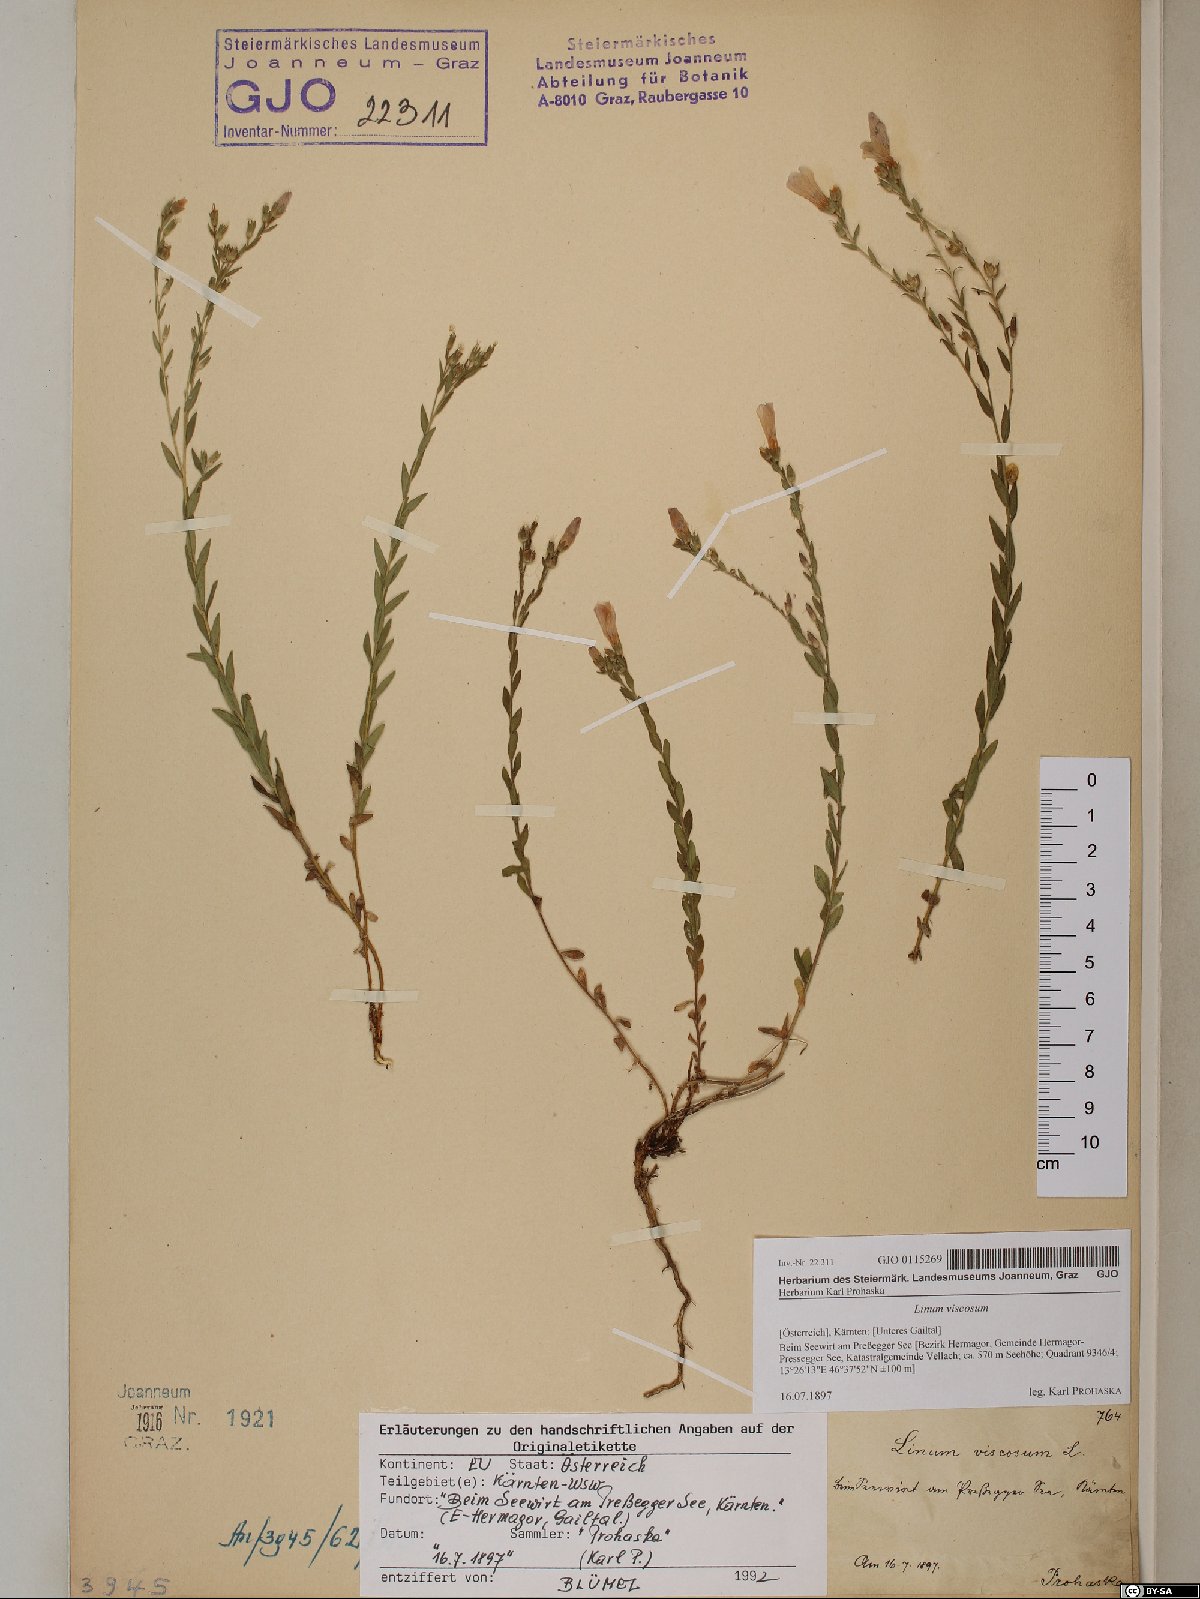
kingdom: Plantae
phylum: Tracheophyta
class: Magnoliopsida
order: Malpighiales
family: Linaceae
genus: Linum
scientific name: Linum viscosum
